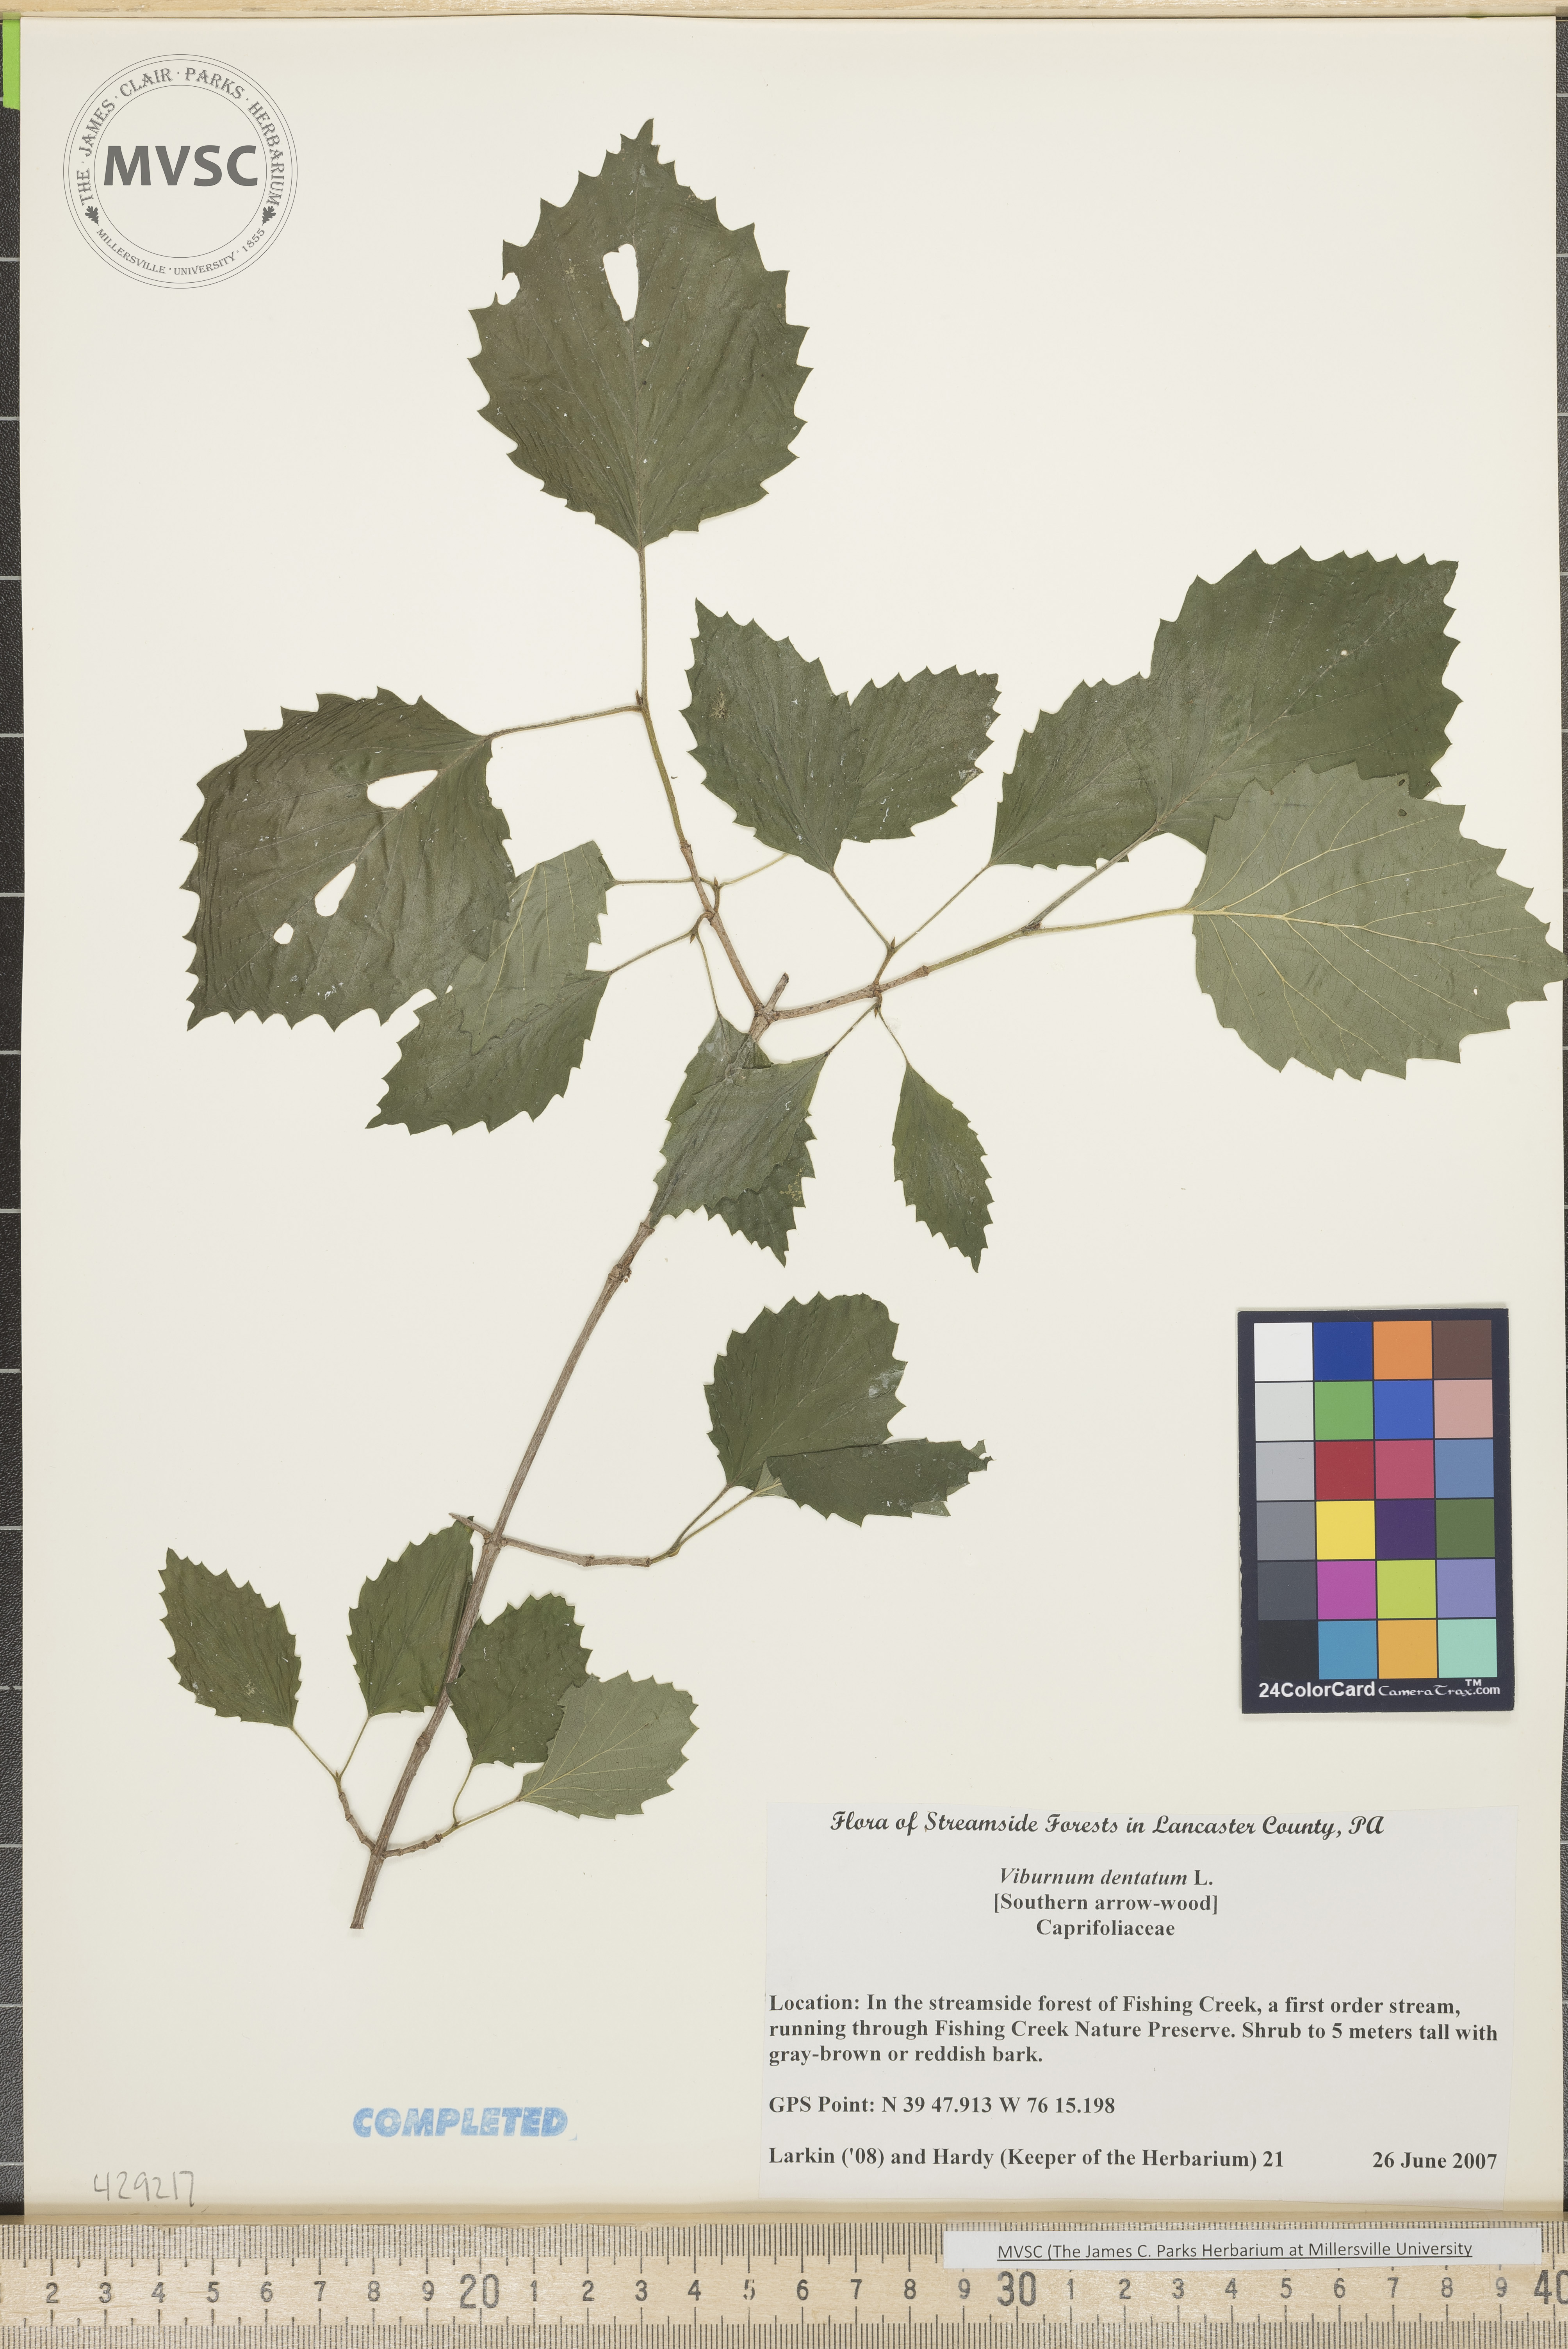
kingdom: Plantae
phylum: Tracheophyta
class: Magnoliopsida
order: Dipsacales
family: Viburnaceae
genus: Viburnum
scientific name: Viburnum dentatum
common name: Southern arrowwood
